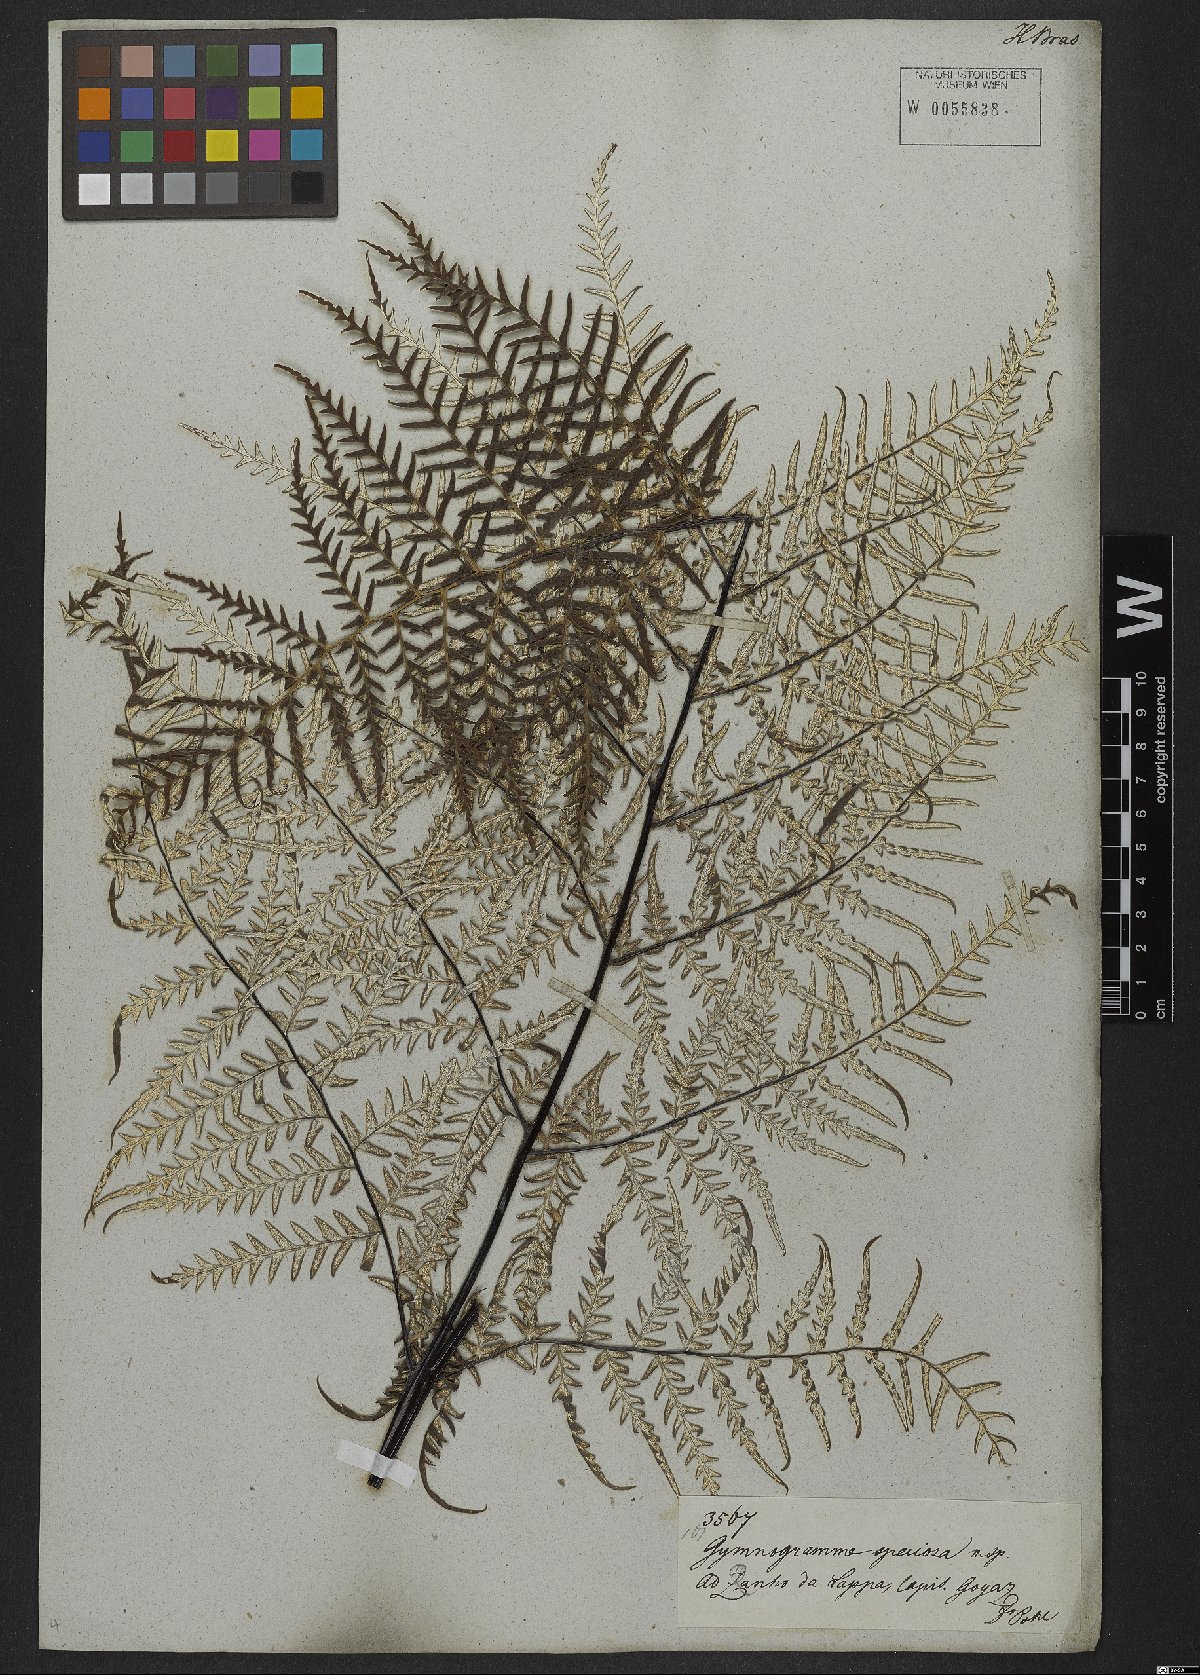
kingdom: Plantae
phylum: Tracheophyta
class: Polypodiopsida
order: Polypodiales
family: Pteridaceae
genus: Pityrogramma
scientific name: Pityrogramma calomelanos
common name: Dixie silverback fern
